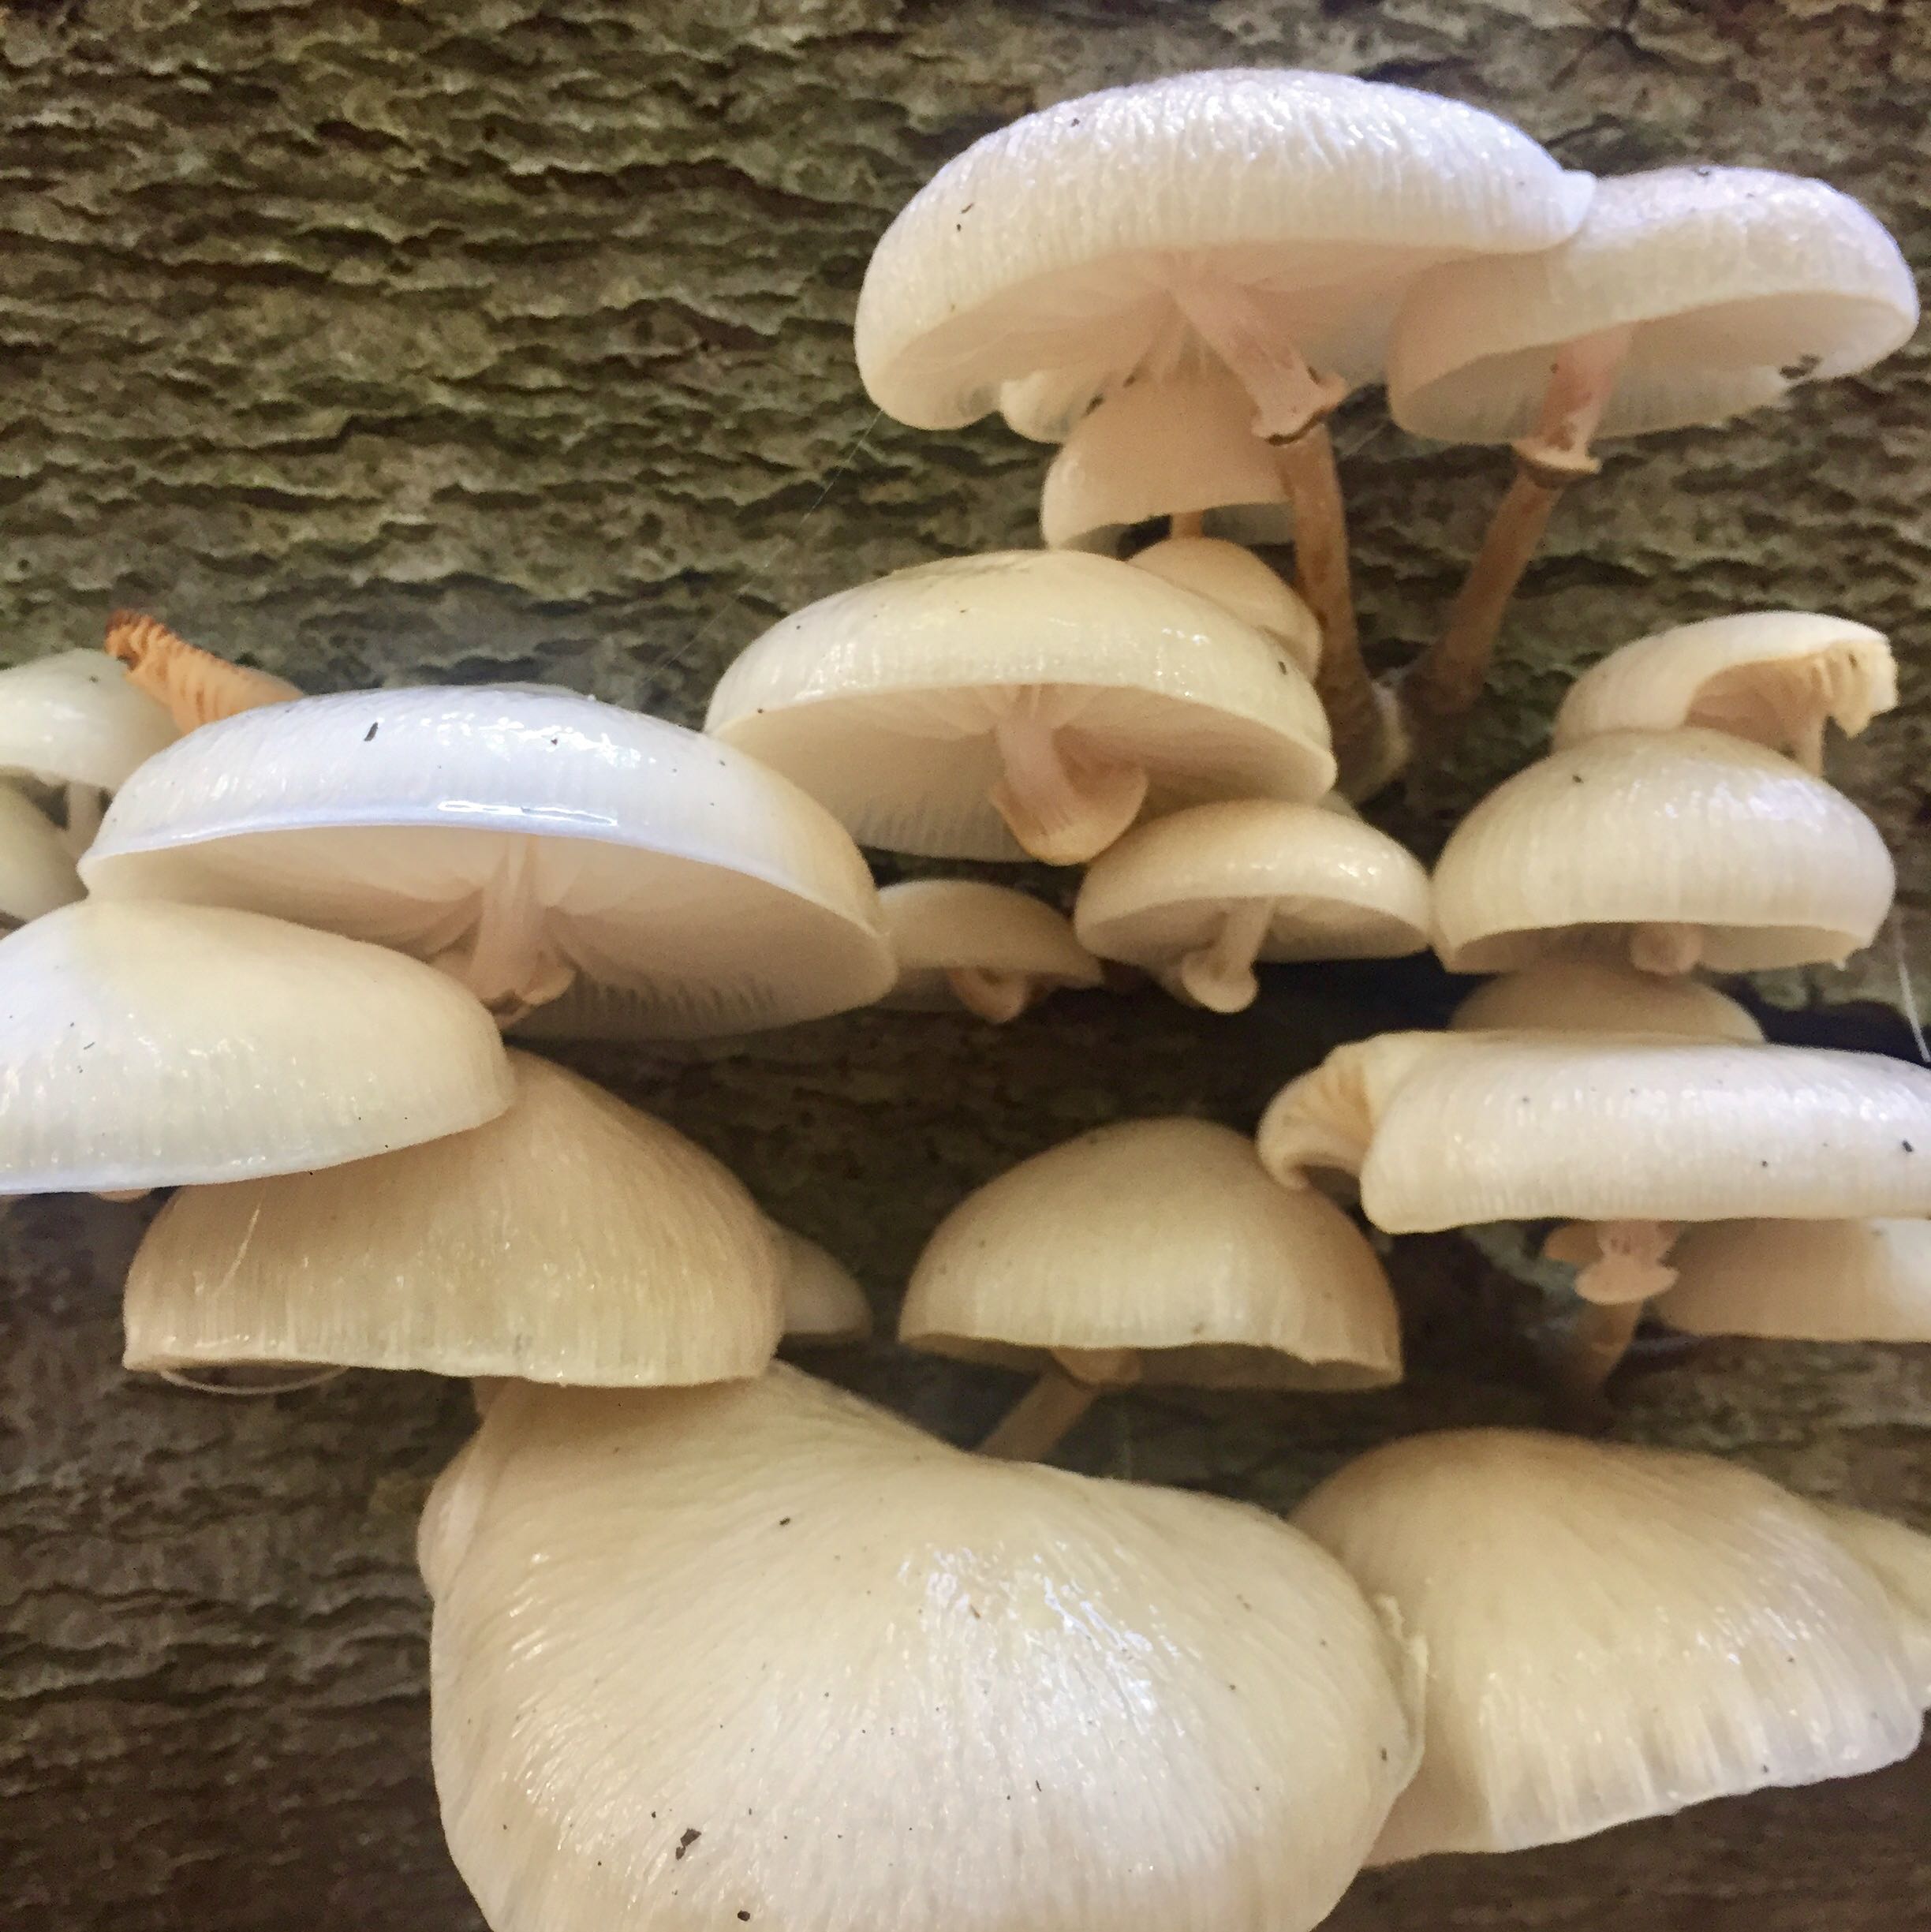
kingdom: Fungi
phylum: Basidiomycota
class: Agaricomycetes
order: Agaricales
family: Physalacriaceae
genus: Mucidula
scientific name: Mucidula mucida
